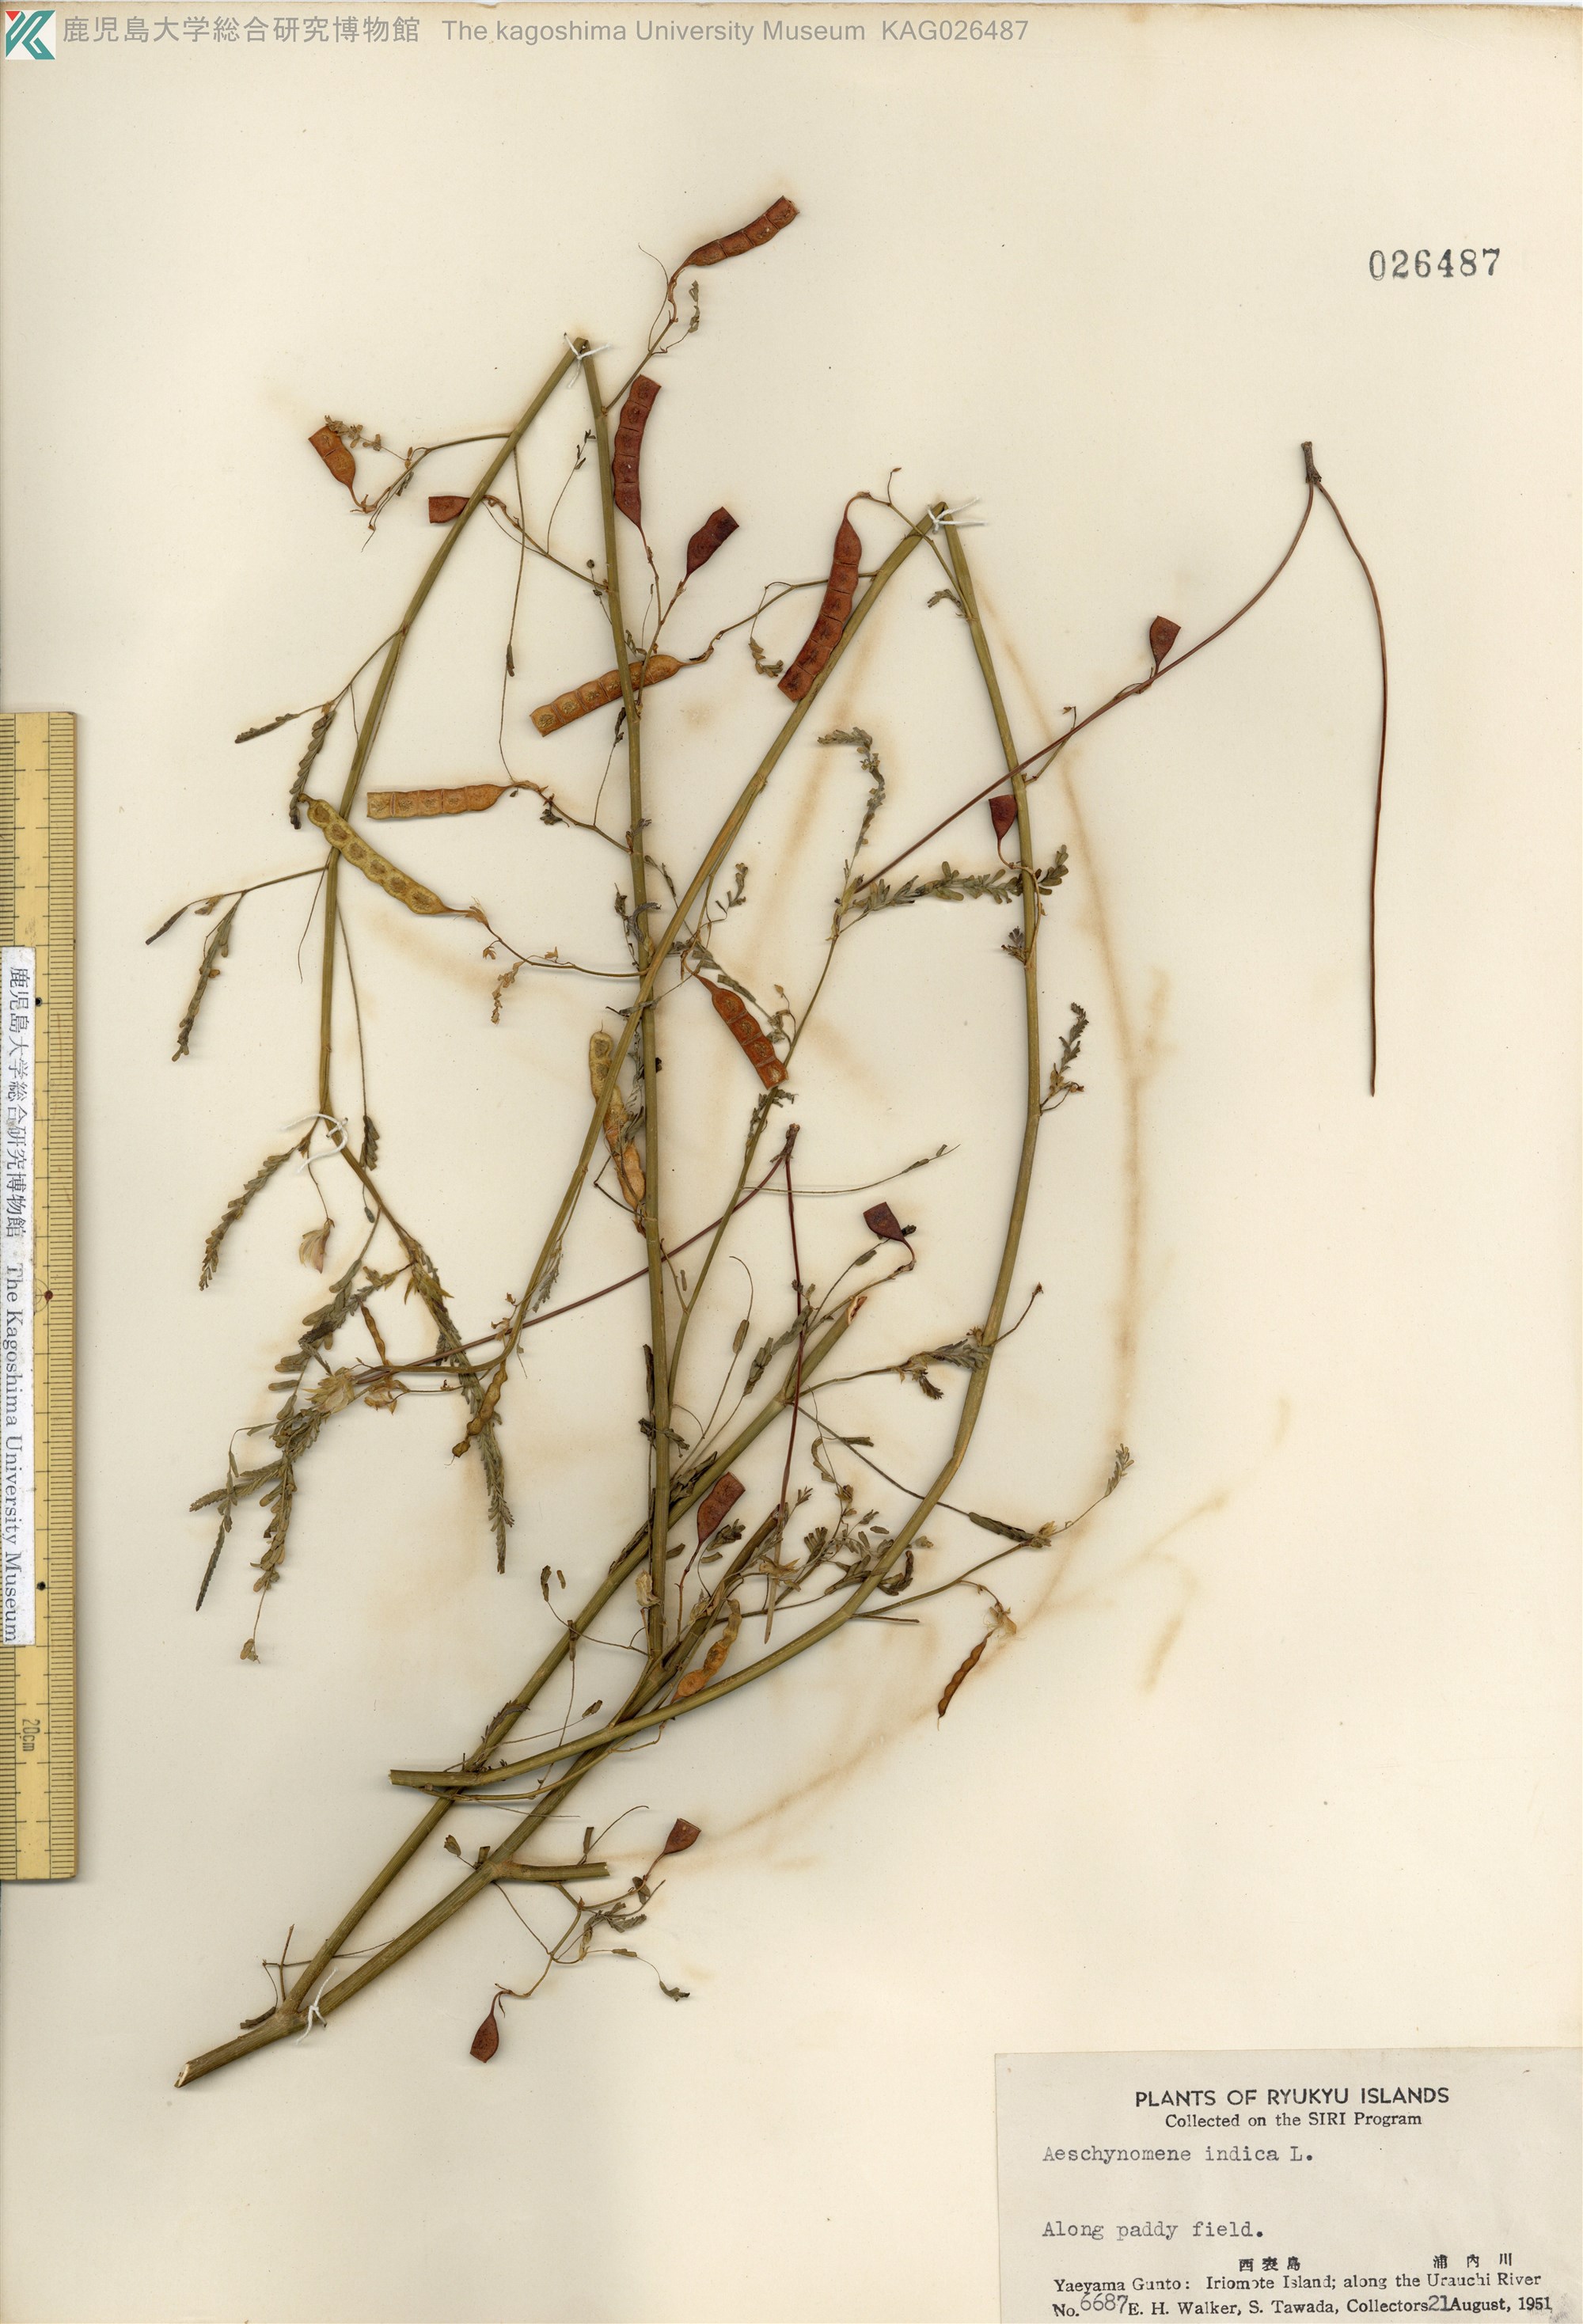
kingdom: Plantae
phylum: Tracheophyta
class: Magnoliopsida
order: Fabales
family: Fabaceae
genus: Aeschynomene
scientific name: Aeschynomene indica
